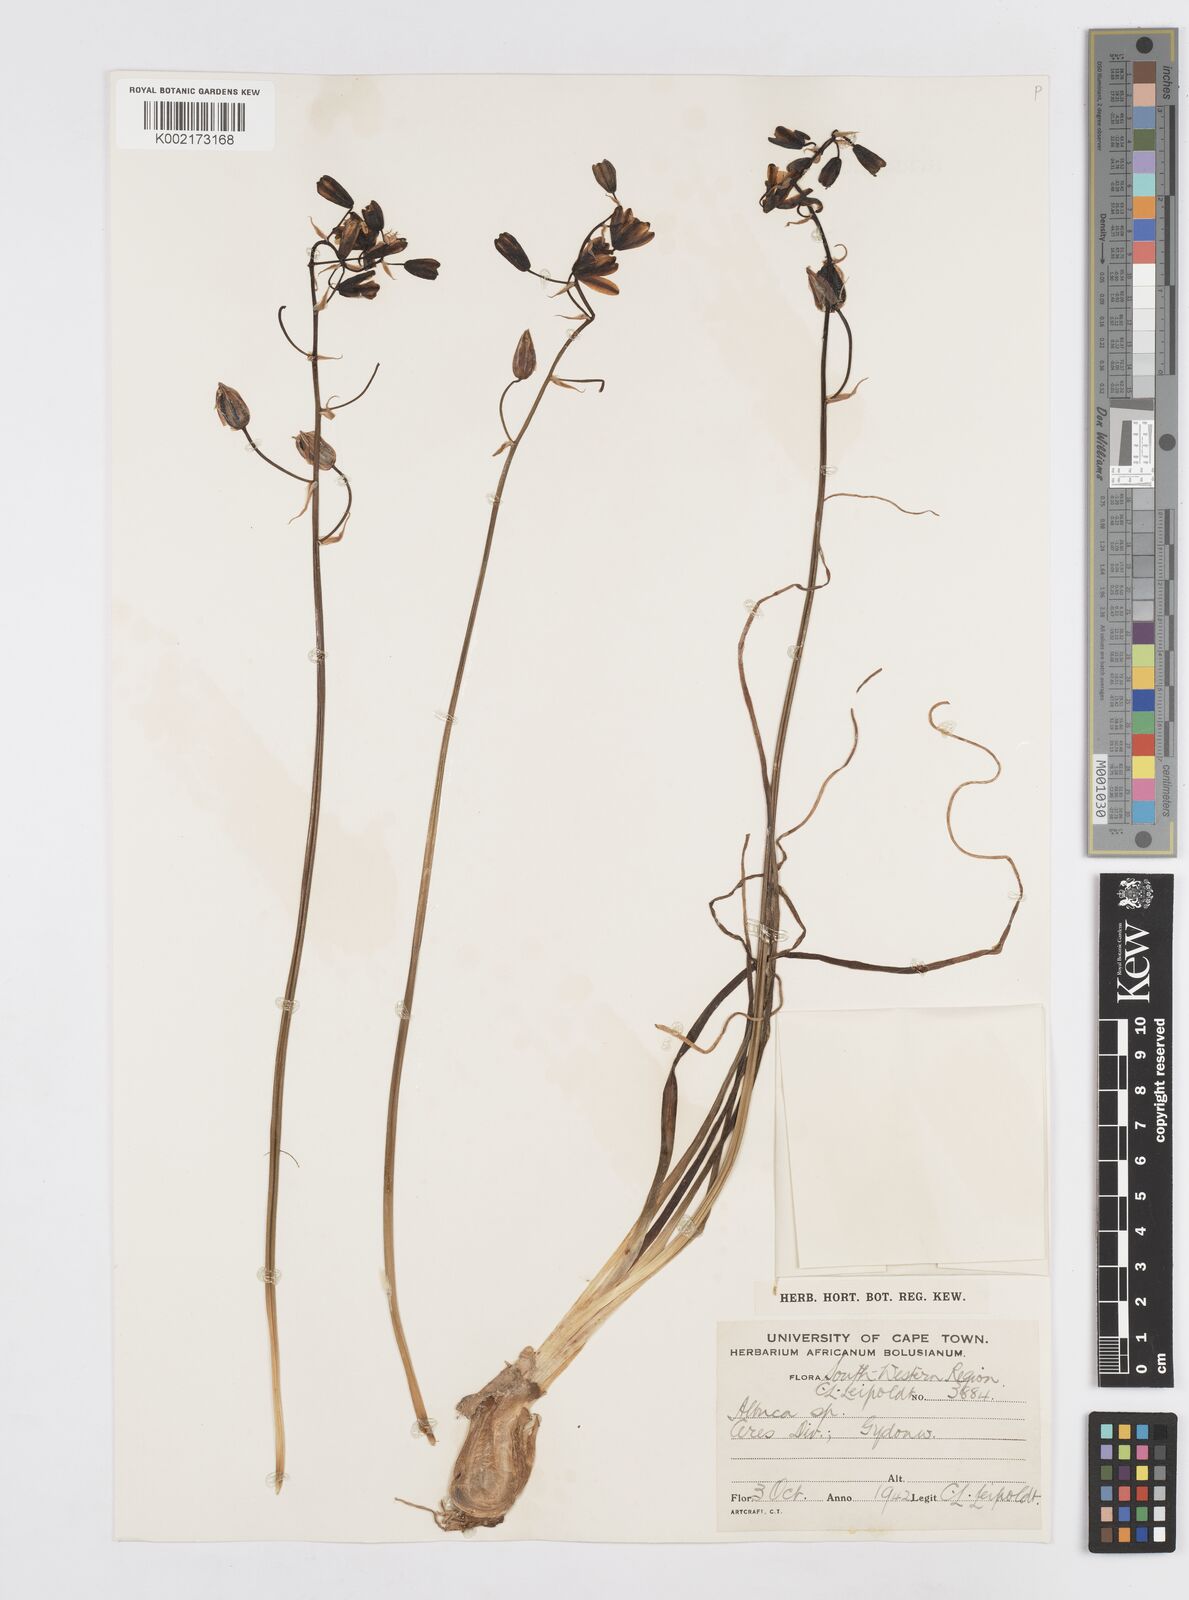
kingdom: Plantae
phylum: Tracheophyta
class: Liliopsida
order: Asparagales
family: Asparagaceae
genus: Albuca
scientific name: Albuca
